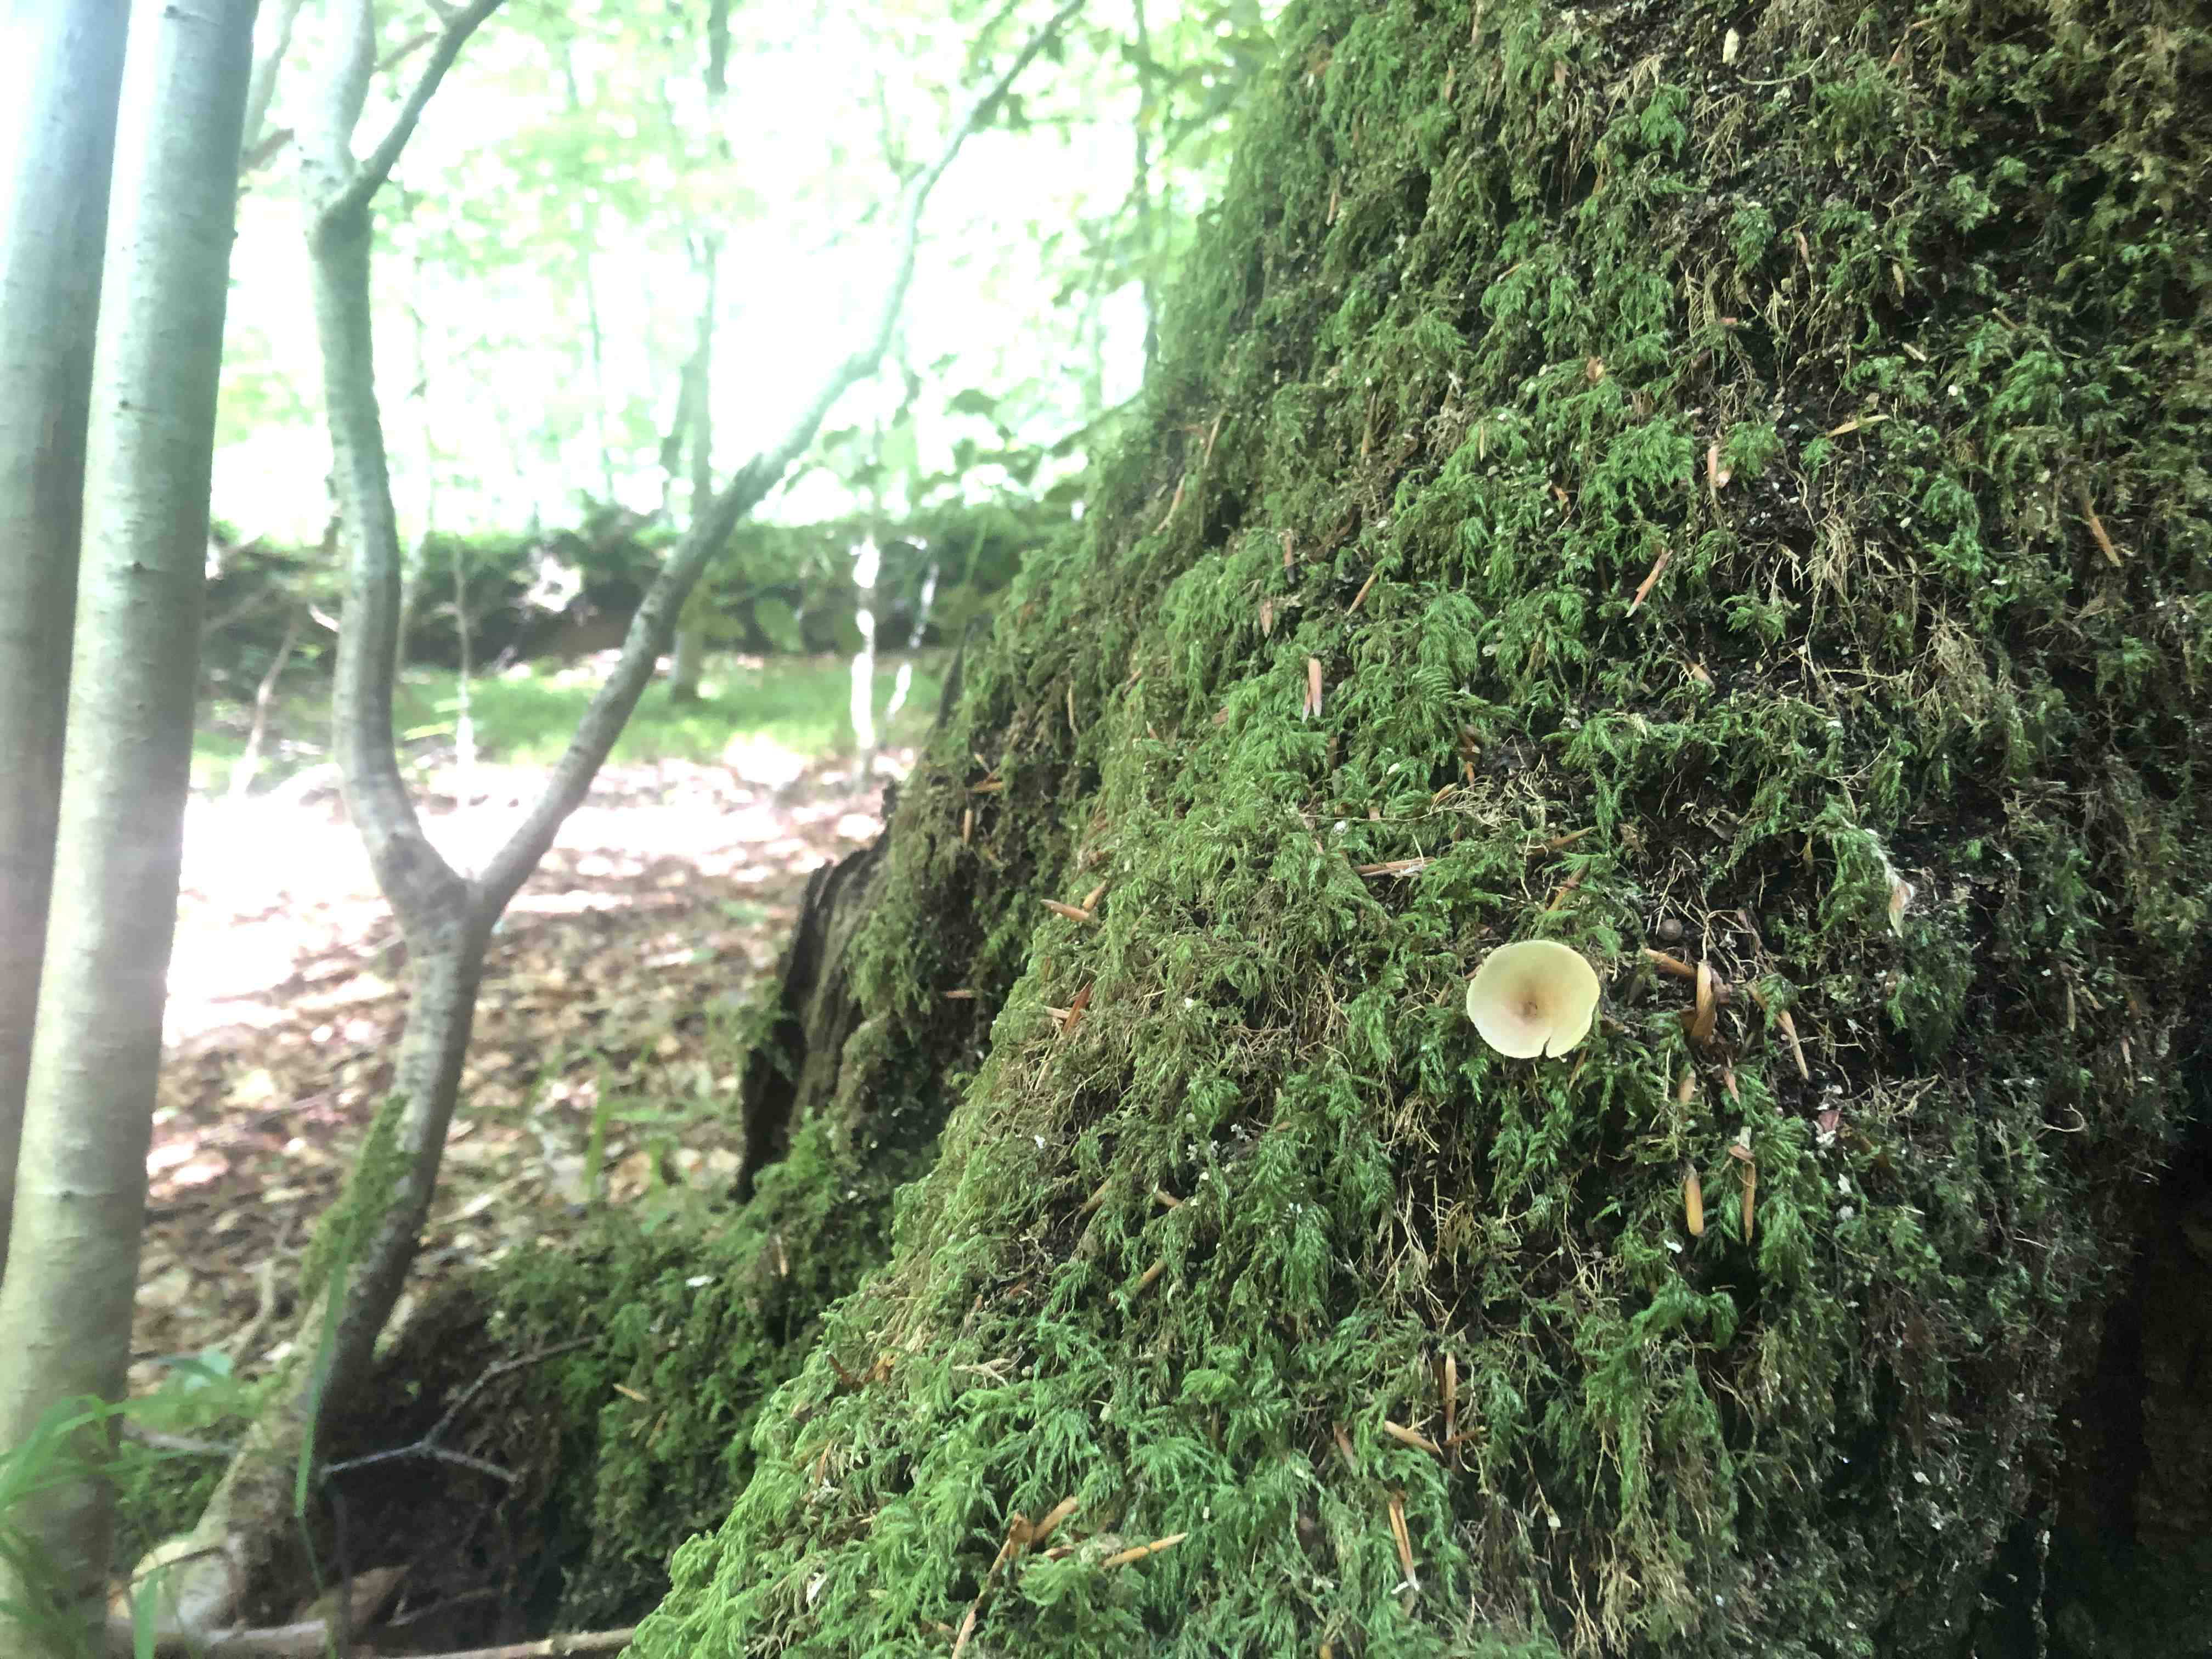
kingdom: Fungi
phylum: Ascomycota
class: Pezizomycetes
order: Pezizales
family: Pezizaceae
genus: Peziza
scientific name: Peziza varia
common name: Ved-bægersvamp
